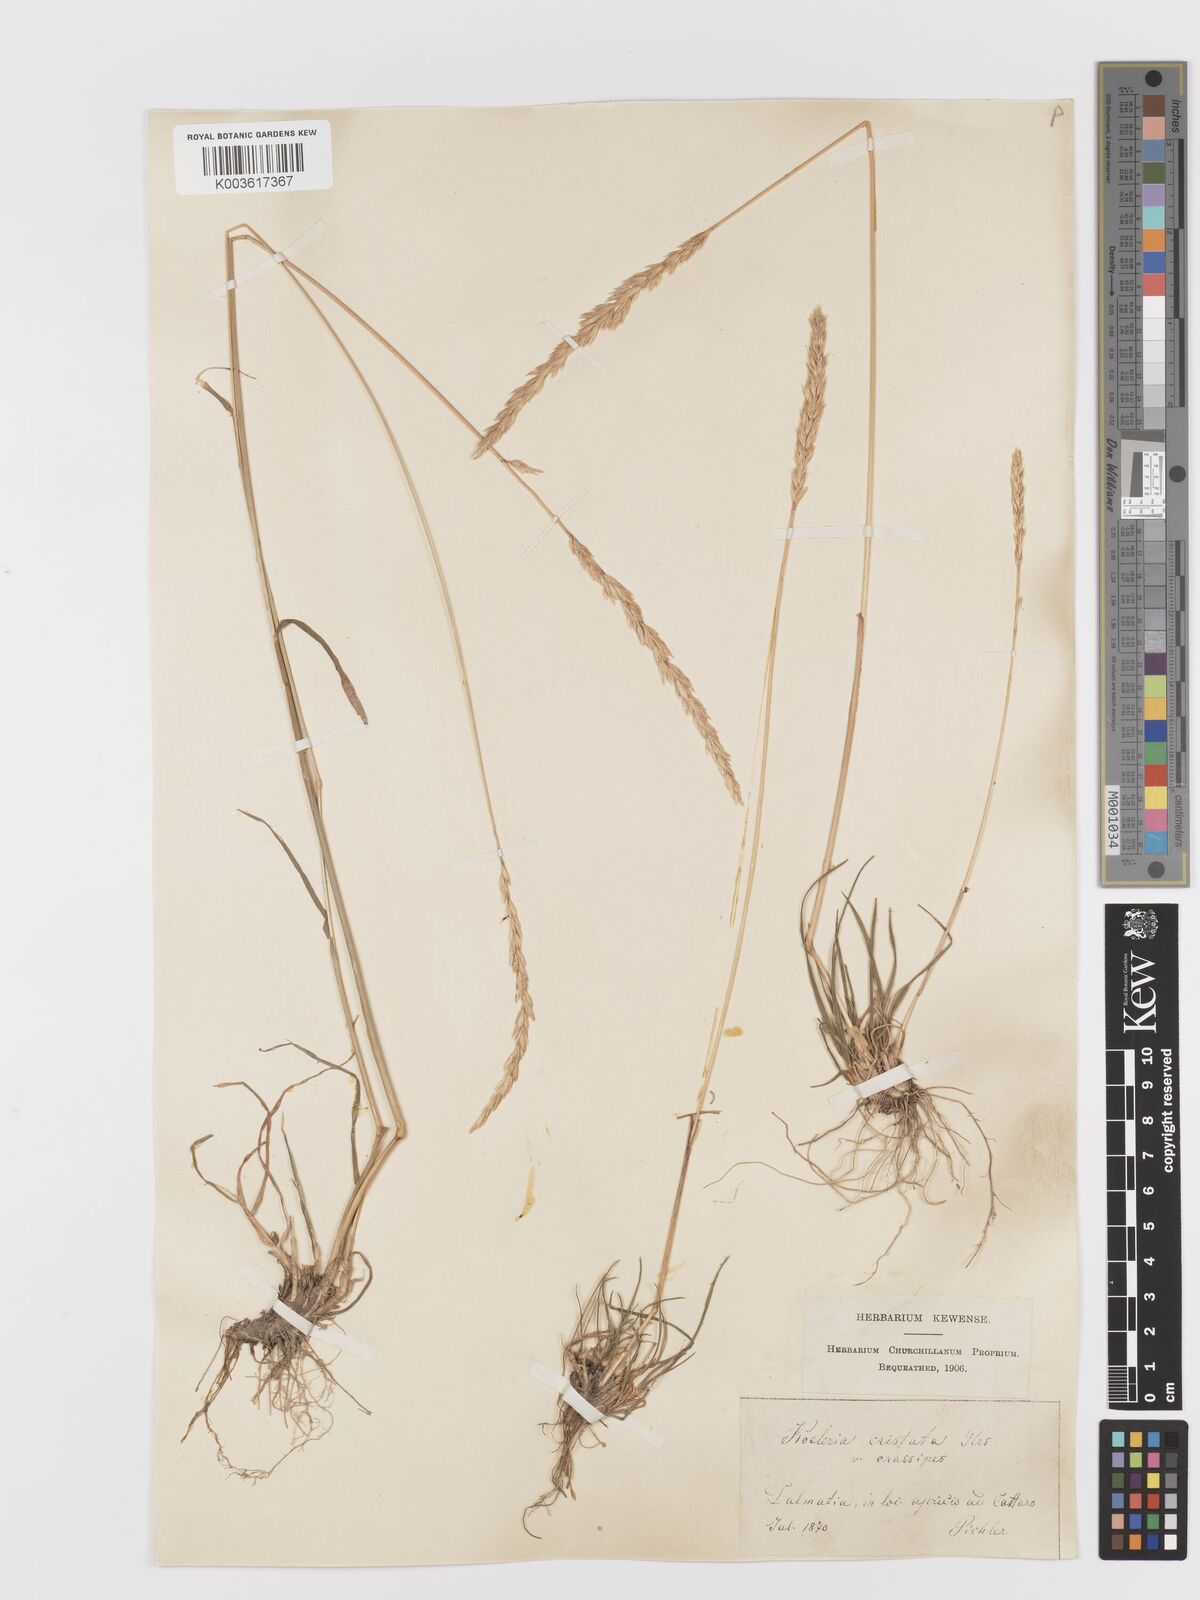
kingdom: Plantae
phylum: Tracheophyta
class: Liliopsida
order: Poales
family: Poaceae
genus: Koeleria
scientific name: Koeleria splendens
